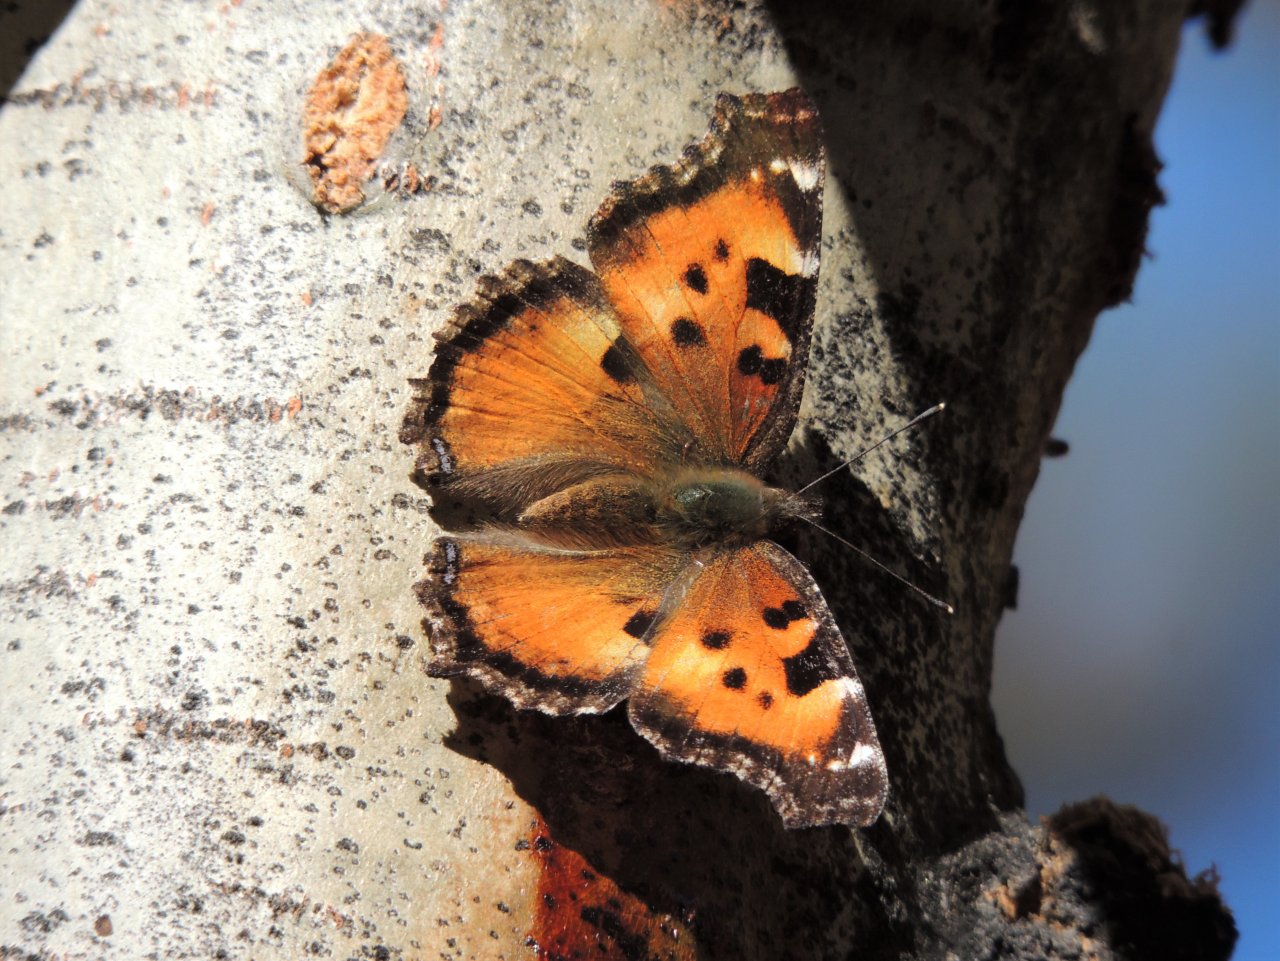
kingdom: Animalia
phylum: Arthropoda
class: Insecta
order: Lepidoptera
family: Nymphalidae
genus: Nymphalis
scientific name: Nymphalis californica
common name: California Tortoiseshell
